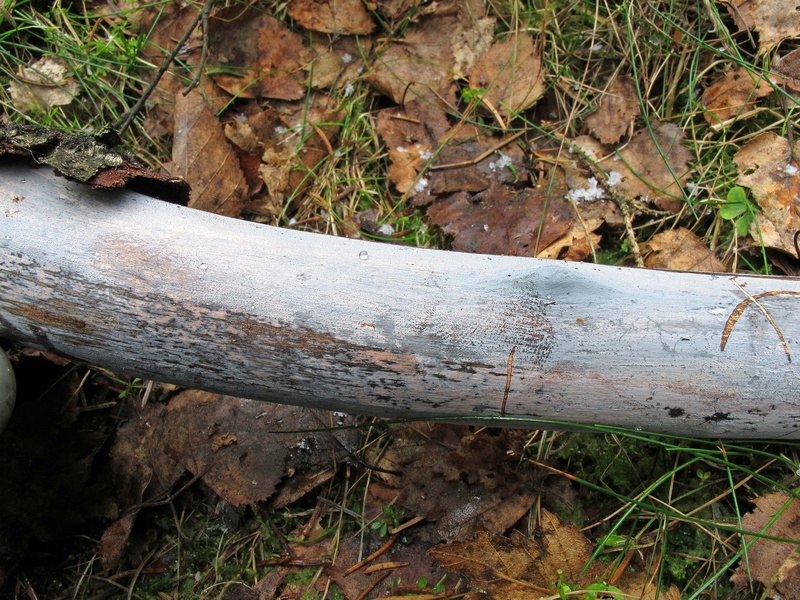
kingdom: Fungi
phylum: Basidiomycota
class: Tremellomycetes
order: Tremellales
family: Exidiaceae
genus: Exidiopsis
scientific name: Exidiopsis effusa
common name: smuk bævrehinde
